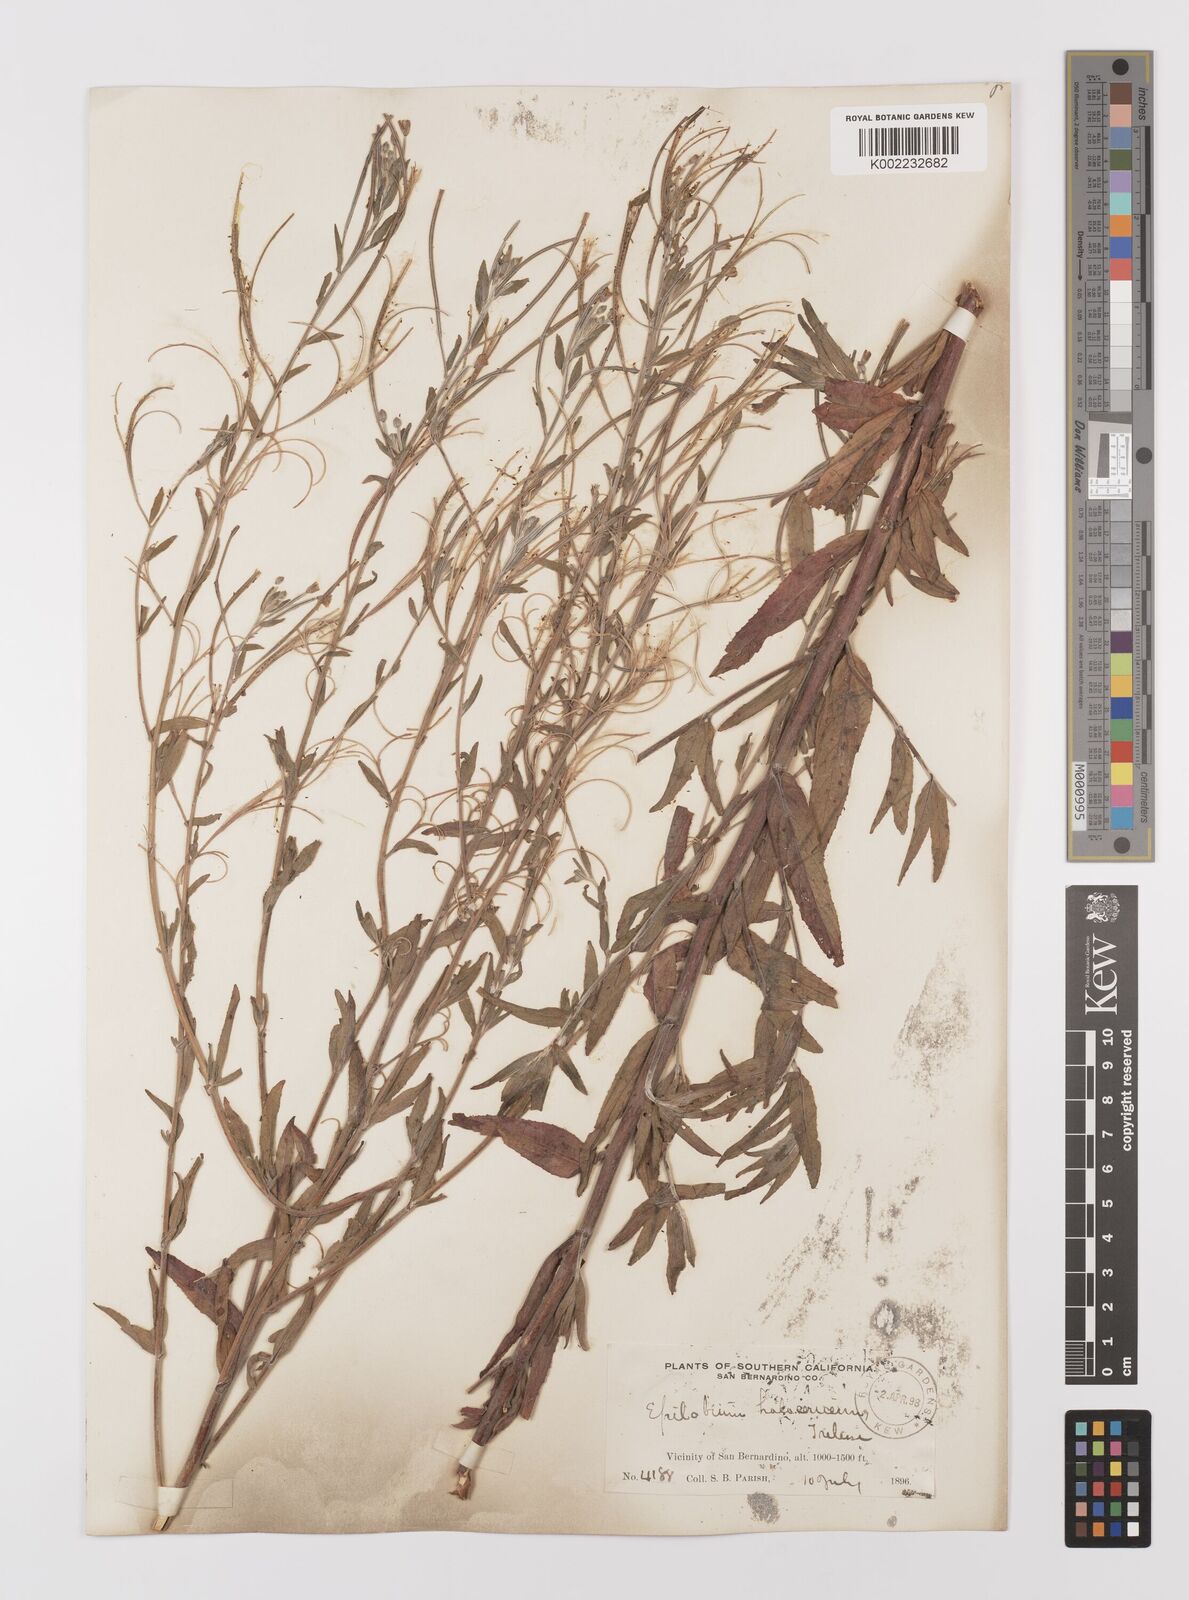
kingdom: Plantae
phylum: Tracheophyta
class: Magnoliopsida
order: Myrtales
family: Onagraceae
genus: Epilobium
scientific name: Epilobium ciliatum
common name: American willowherb
